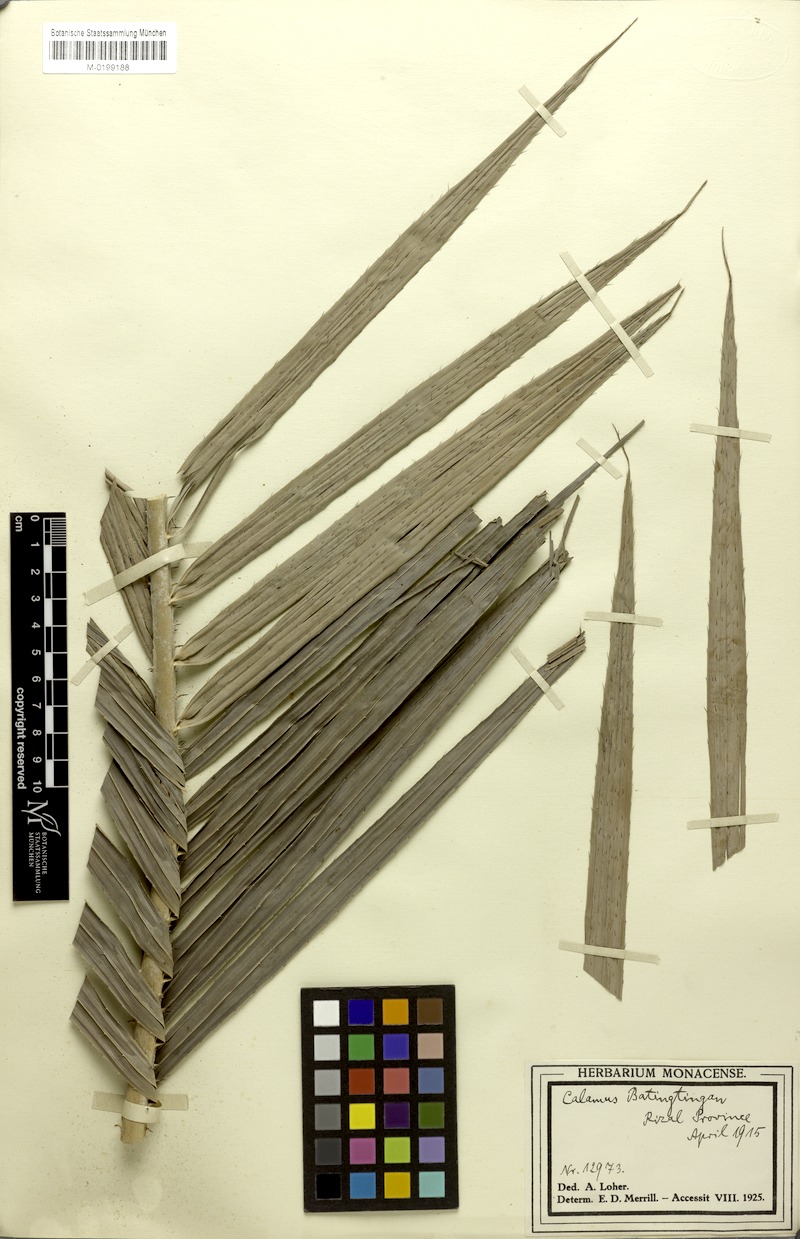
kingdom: Plantae
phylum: Tracheophyta
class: Liliopsida
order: Arecales
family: Arecaceae
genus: Calamus
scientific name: Calamus siphonospathus
